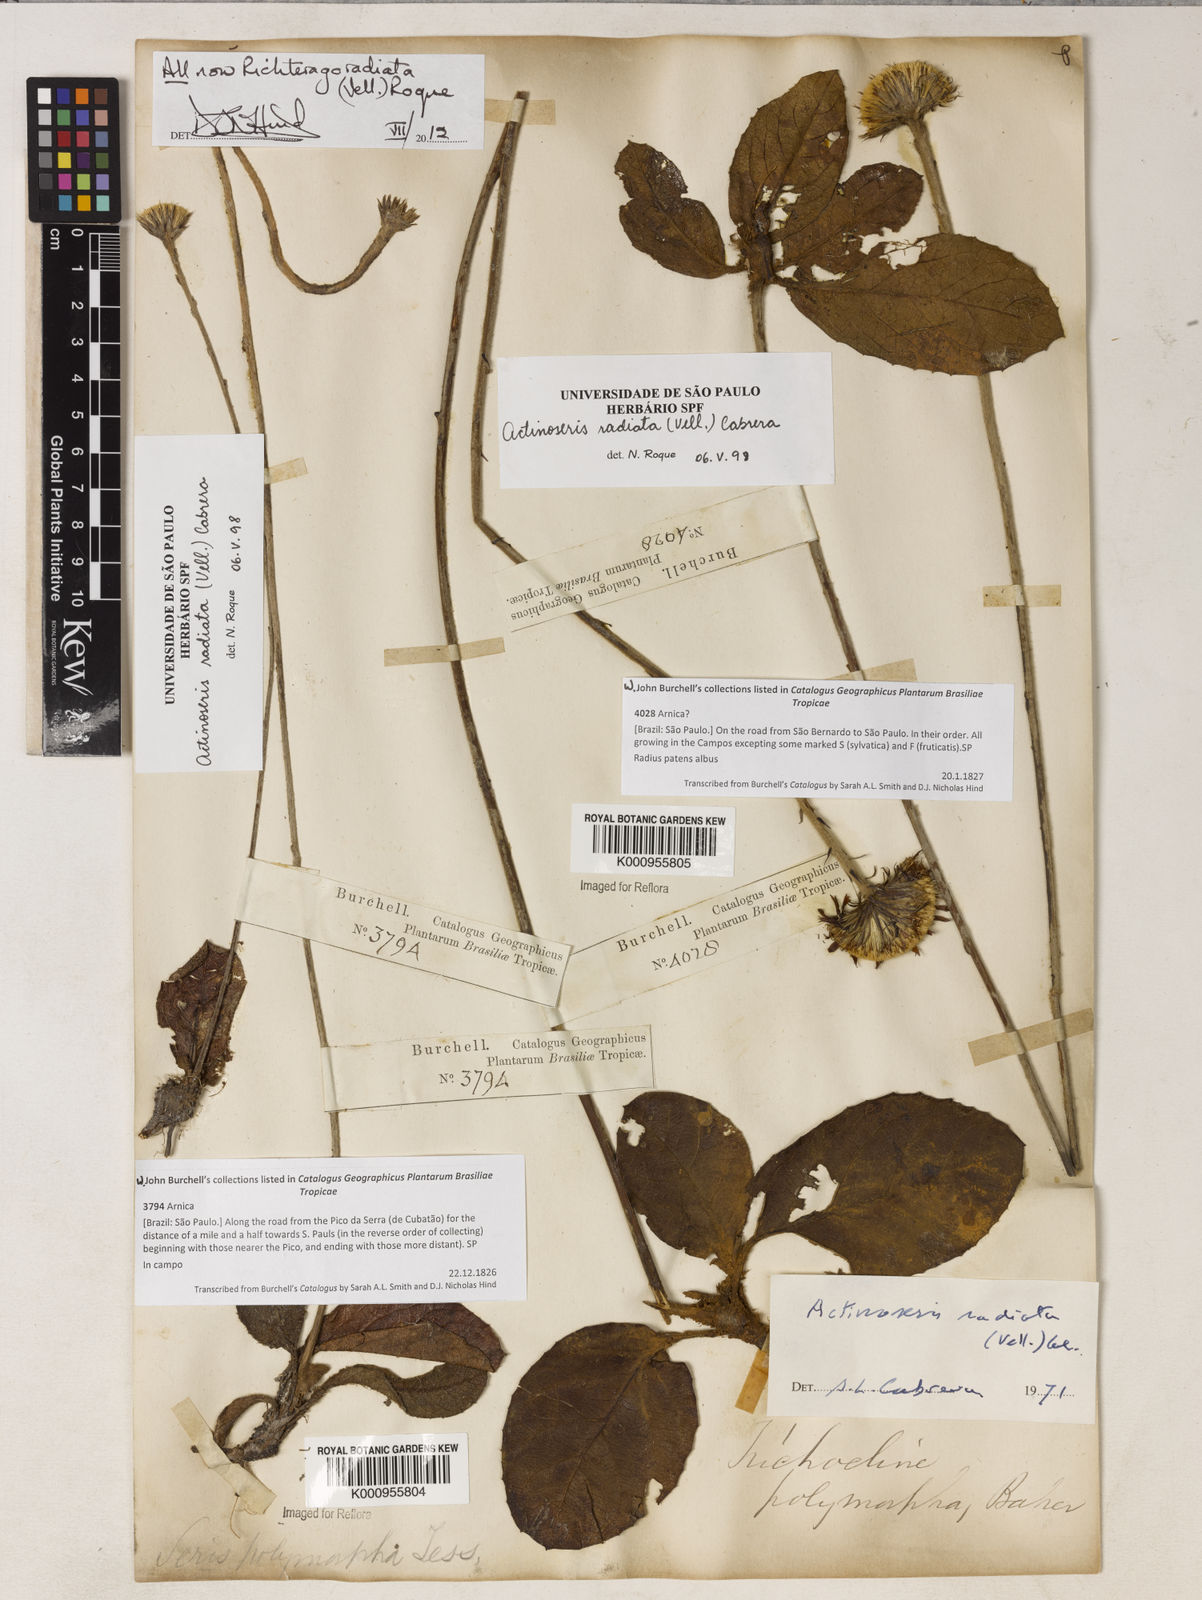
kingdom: Plantae
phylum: Tracheophyta
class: Magnoliopsida
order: Asterales
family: Asteraceae
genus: Richterago
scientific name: Richterago radiata
